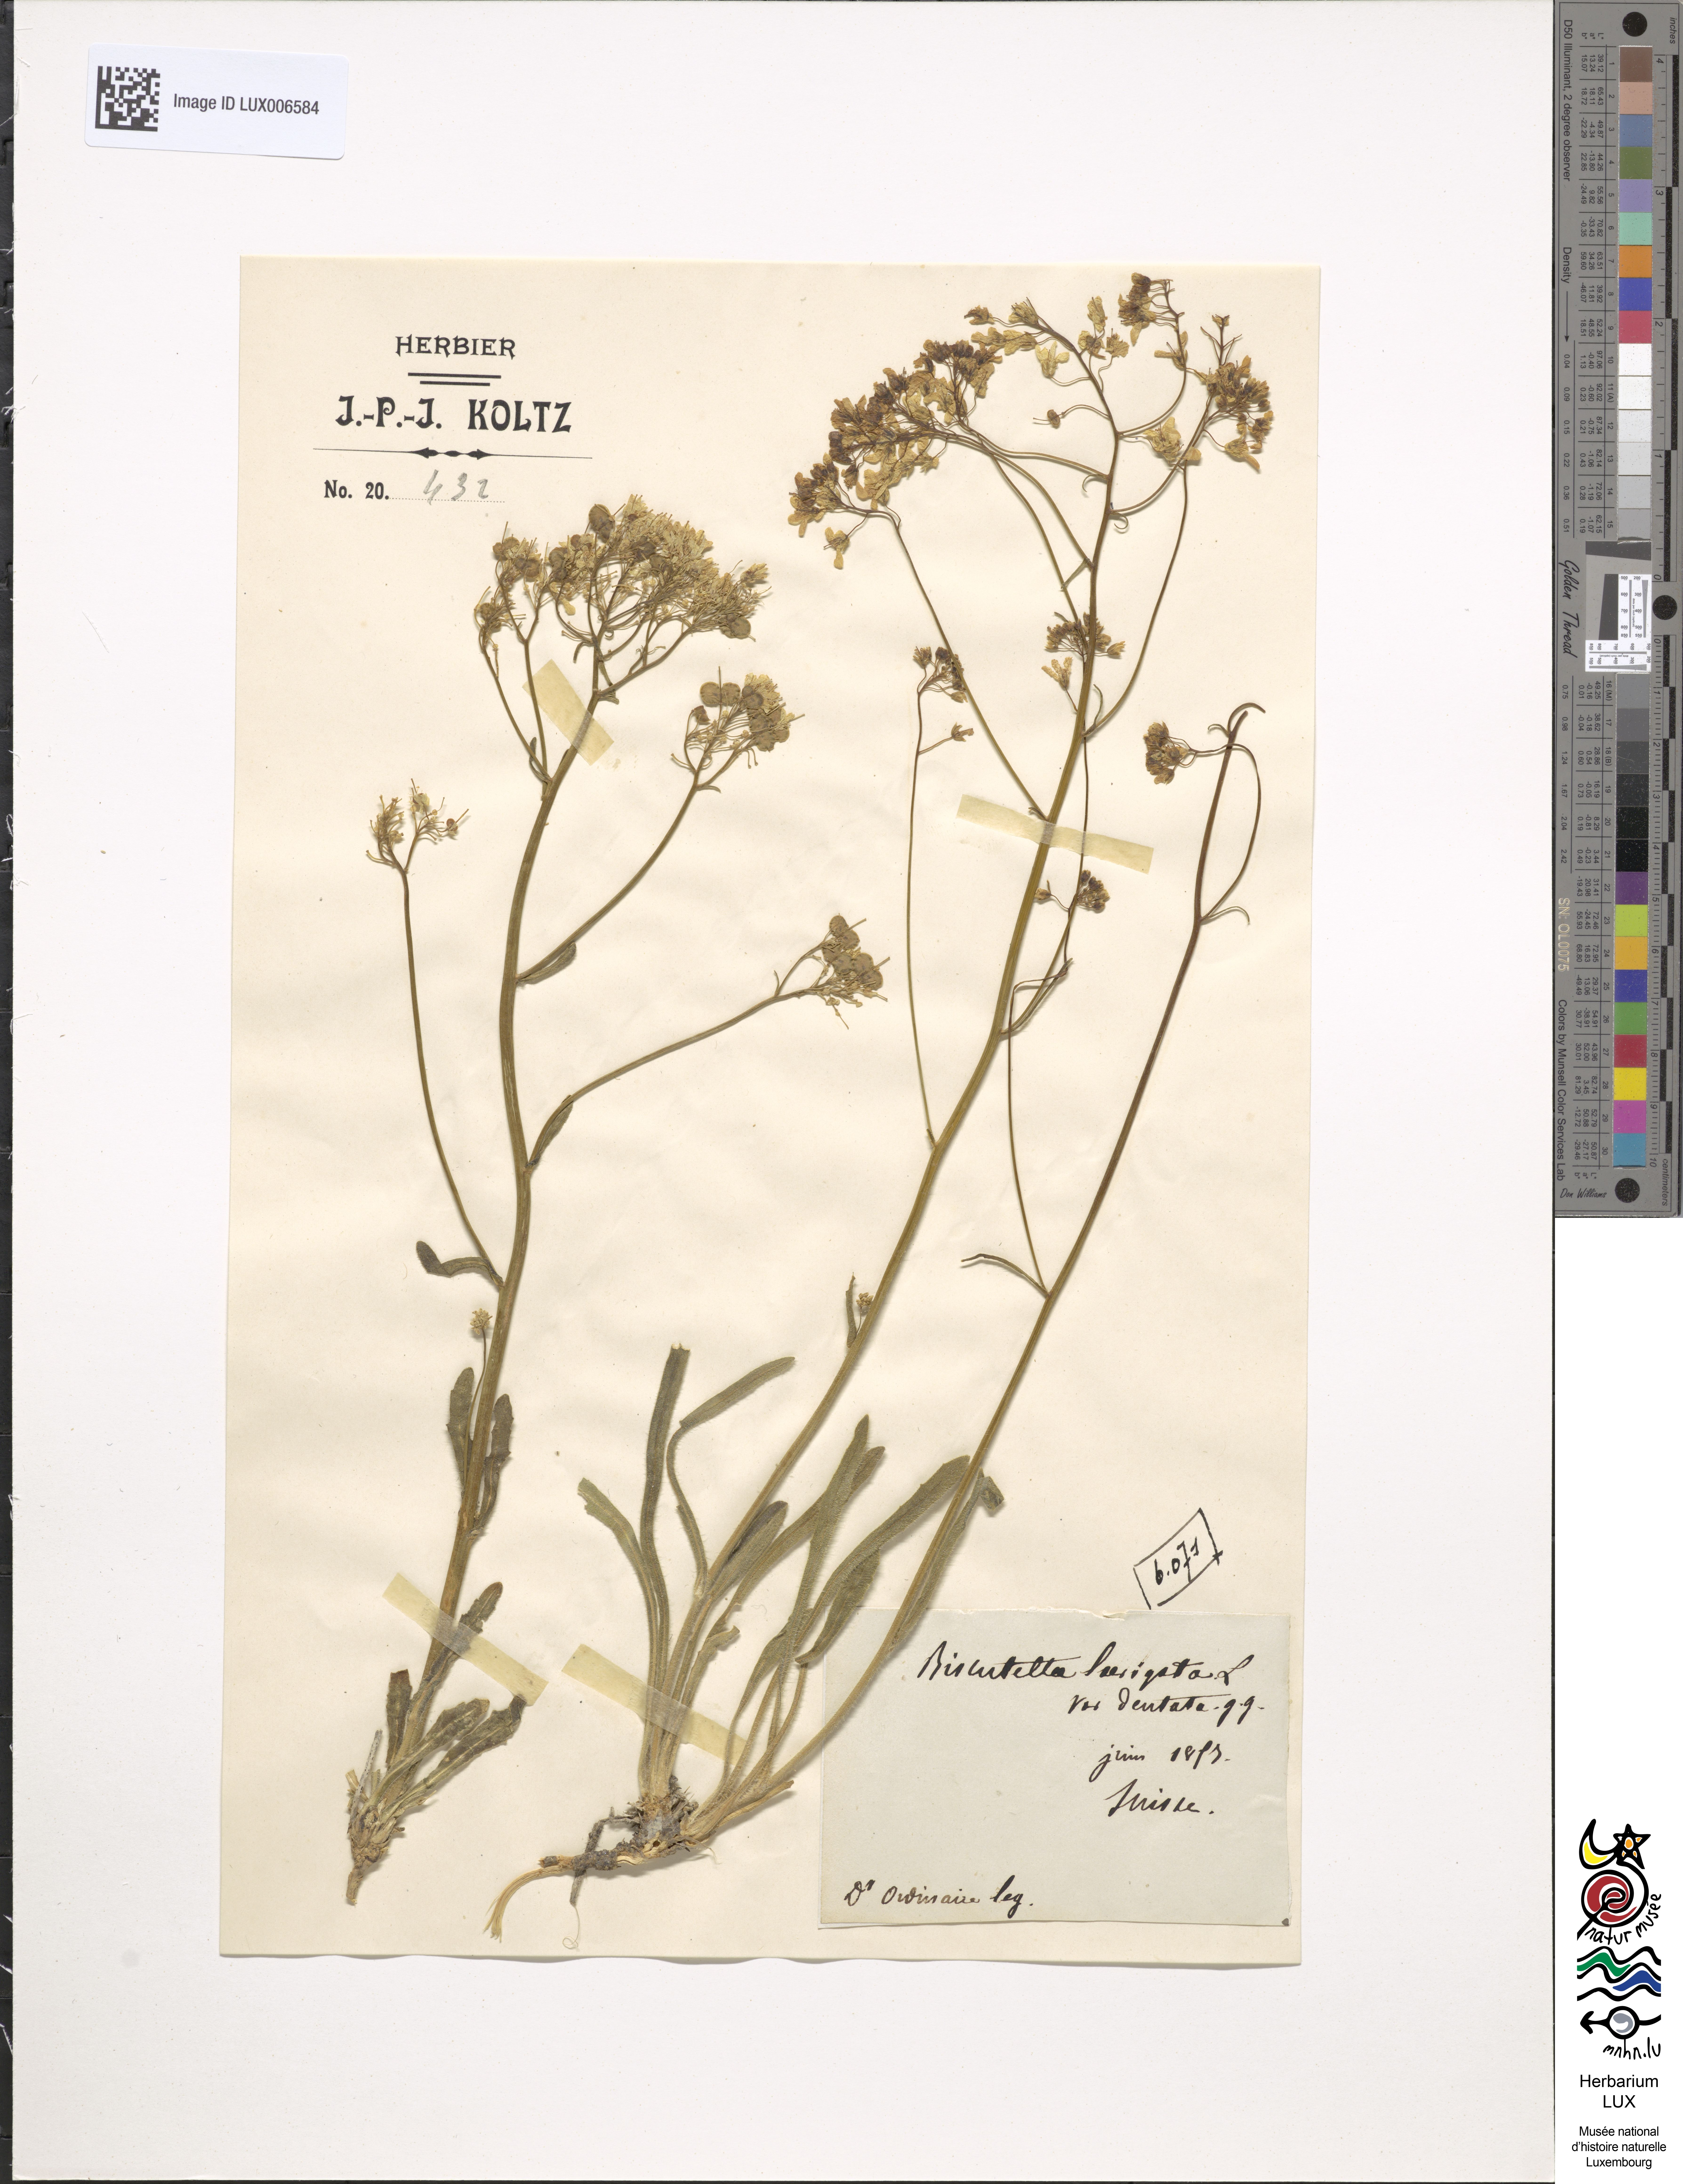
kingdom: Plantae
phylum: Tracheophyta
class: Magnoliopsida
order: Brassicales
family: Brassicaceae
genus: Biscutella
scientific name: Biscutella laevigata
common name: Buckler mustard
